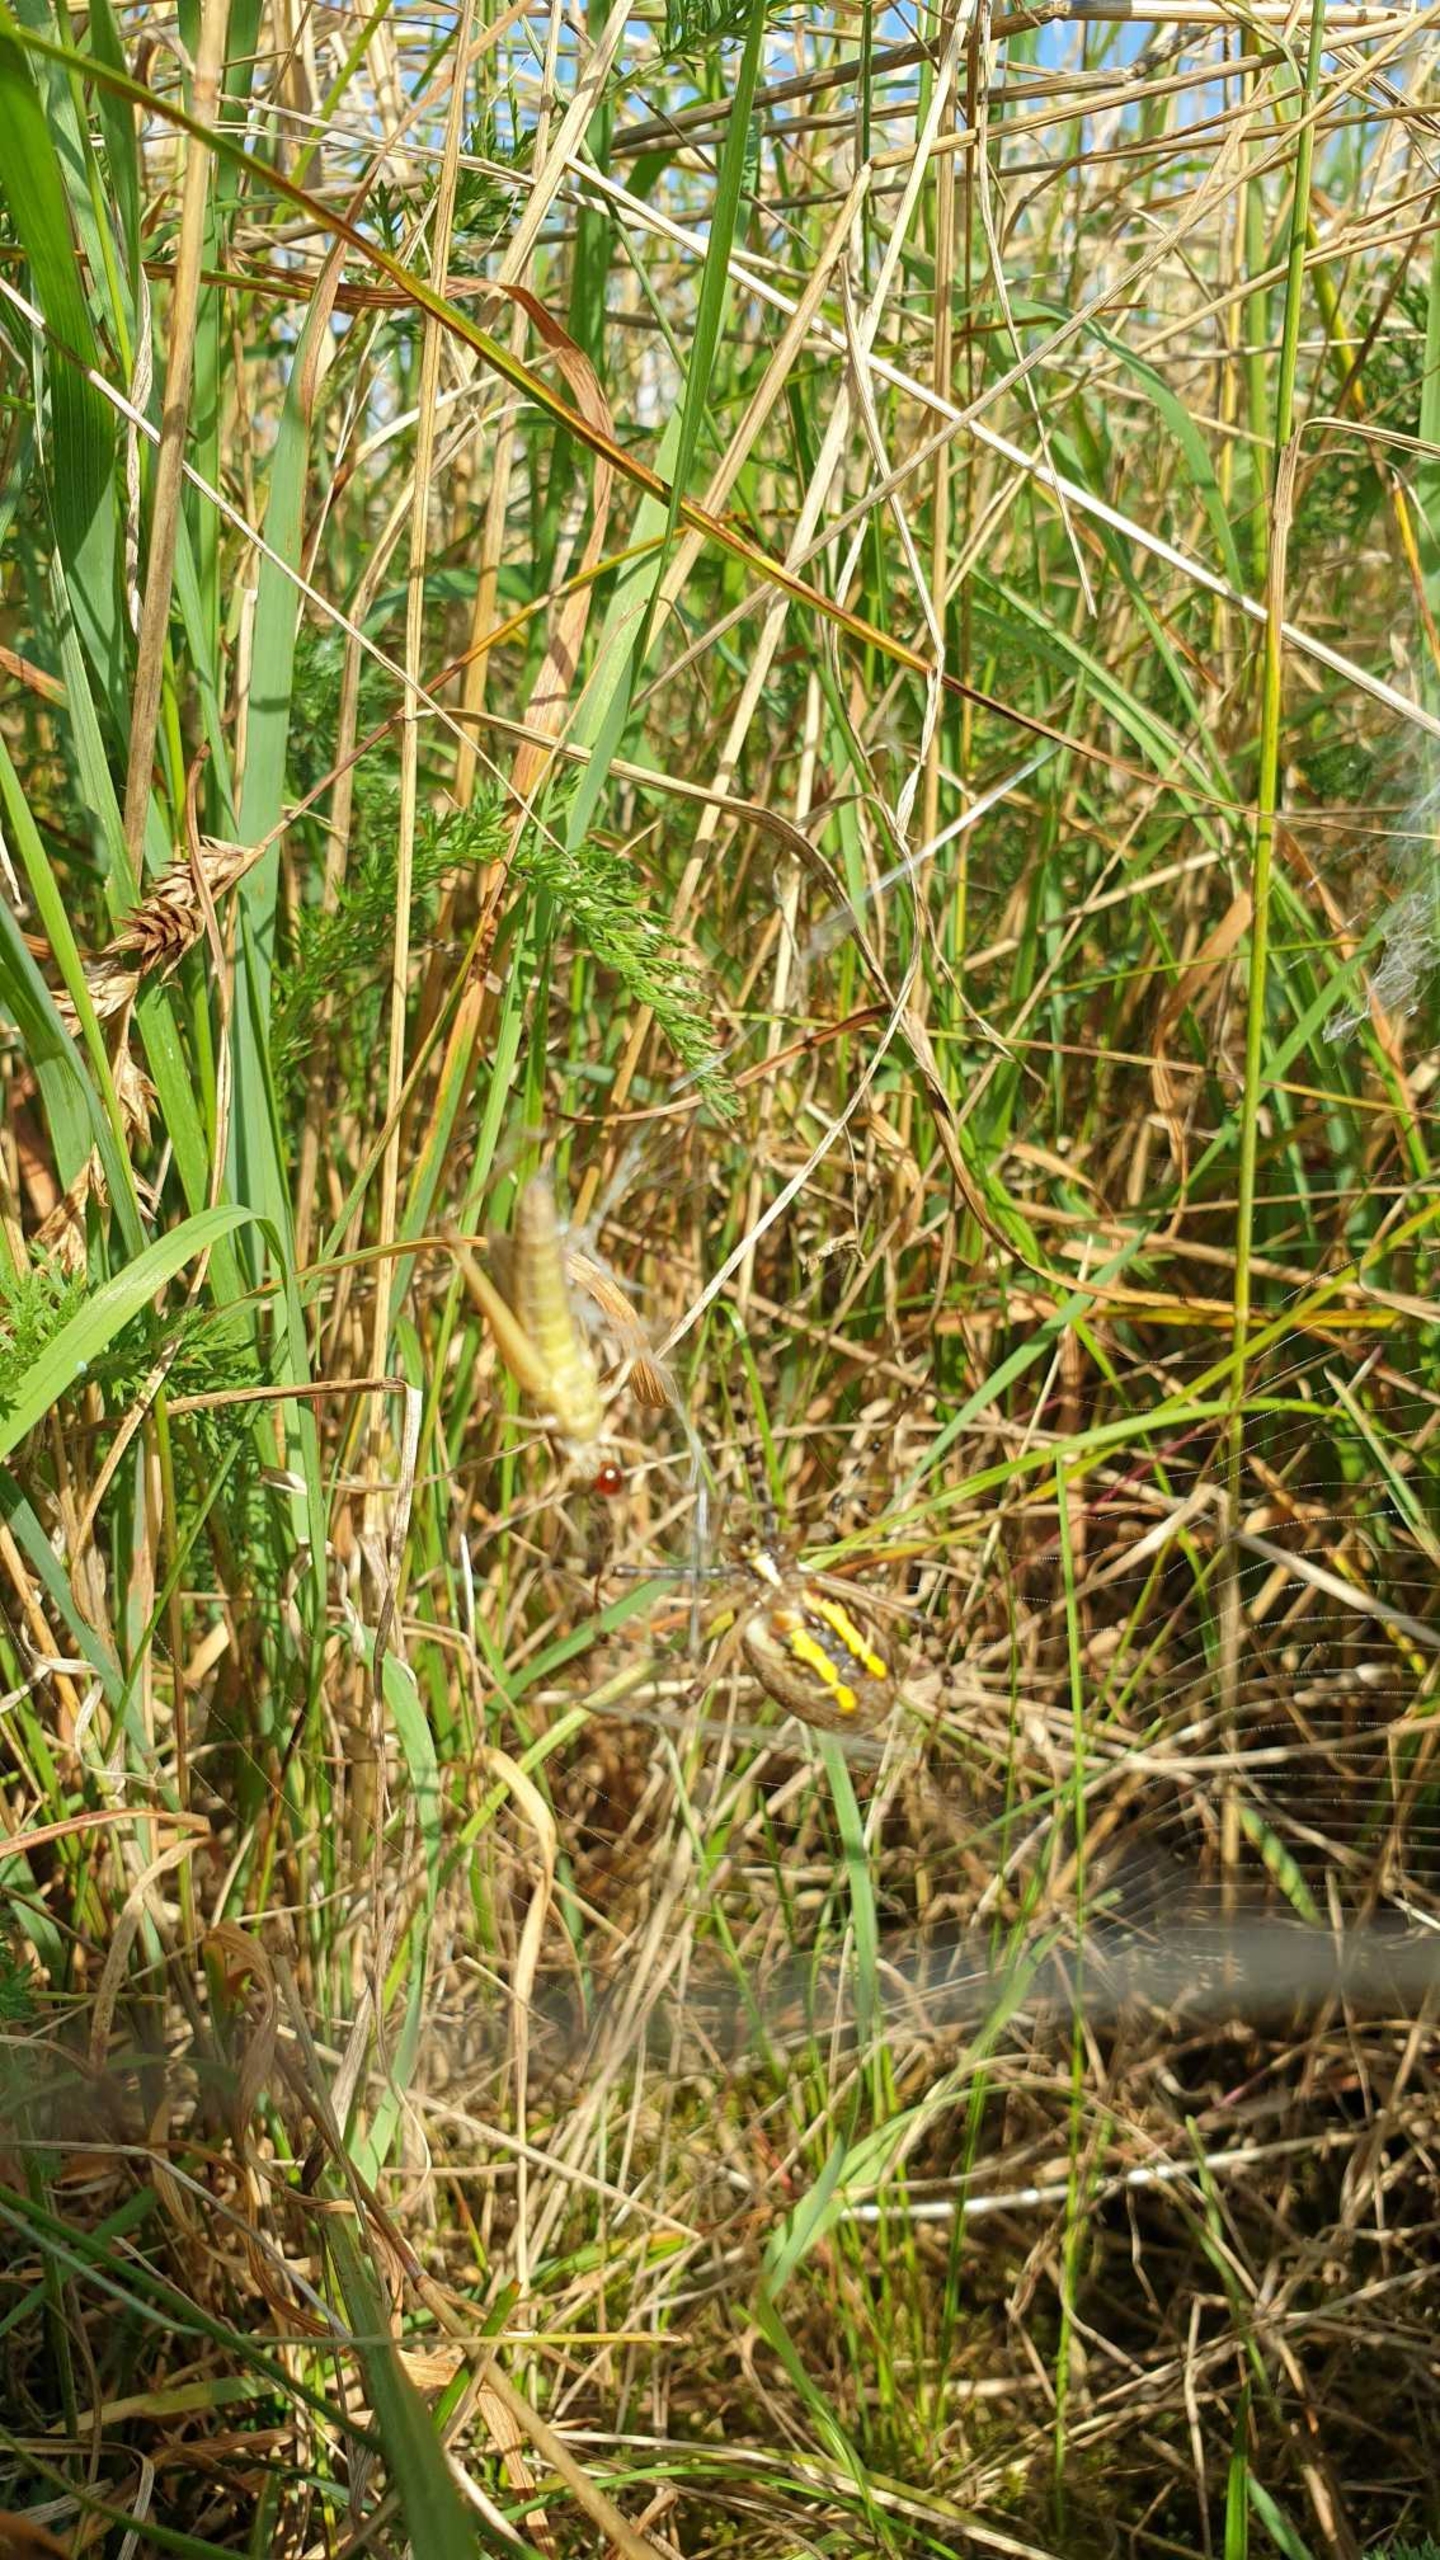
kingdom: Animalia
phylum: Arthropoda
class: Arachnida
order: Araneae
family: Araneidae
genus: Argiope
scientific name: Argiope bruennichi
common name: Hvepseedderkop
